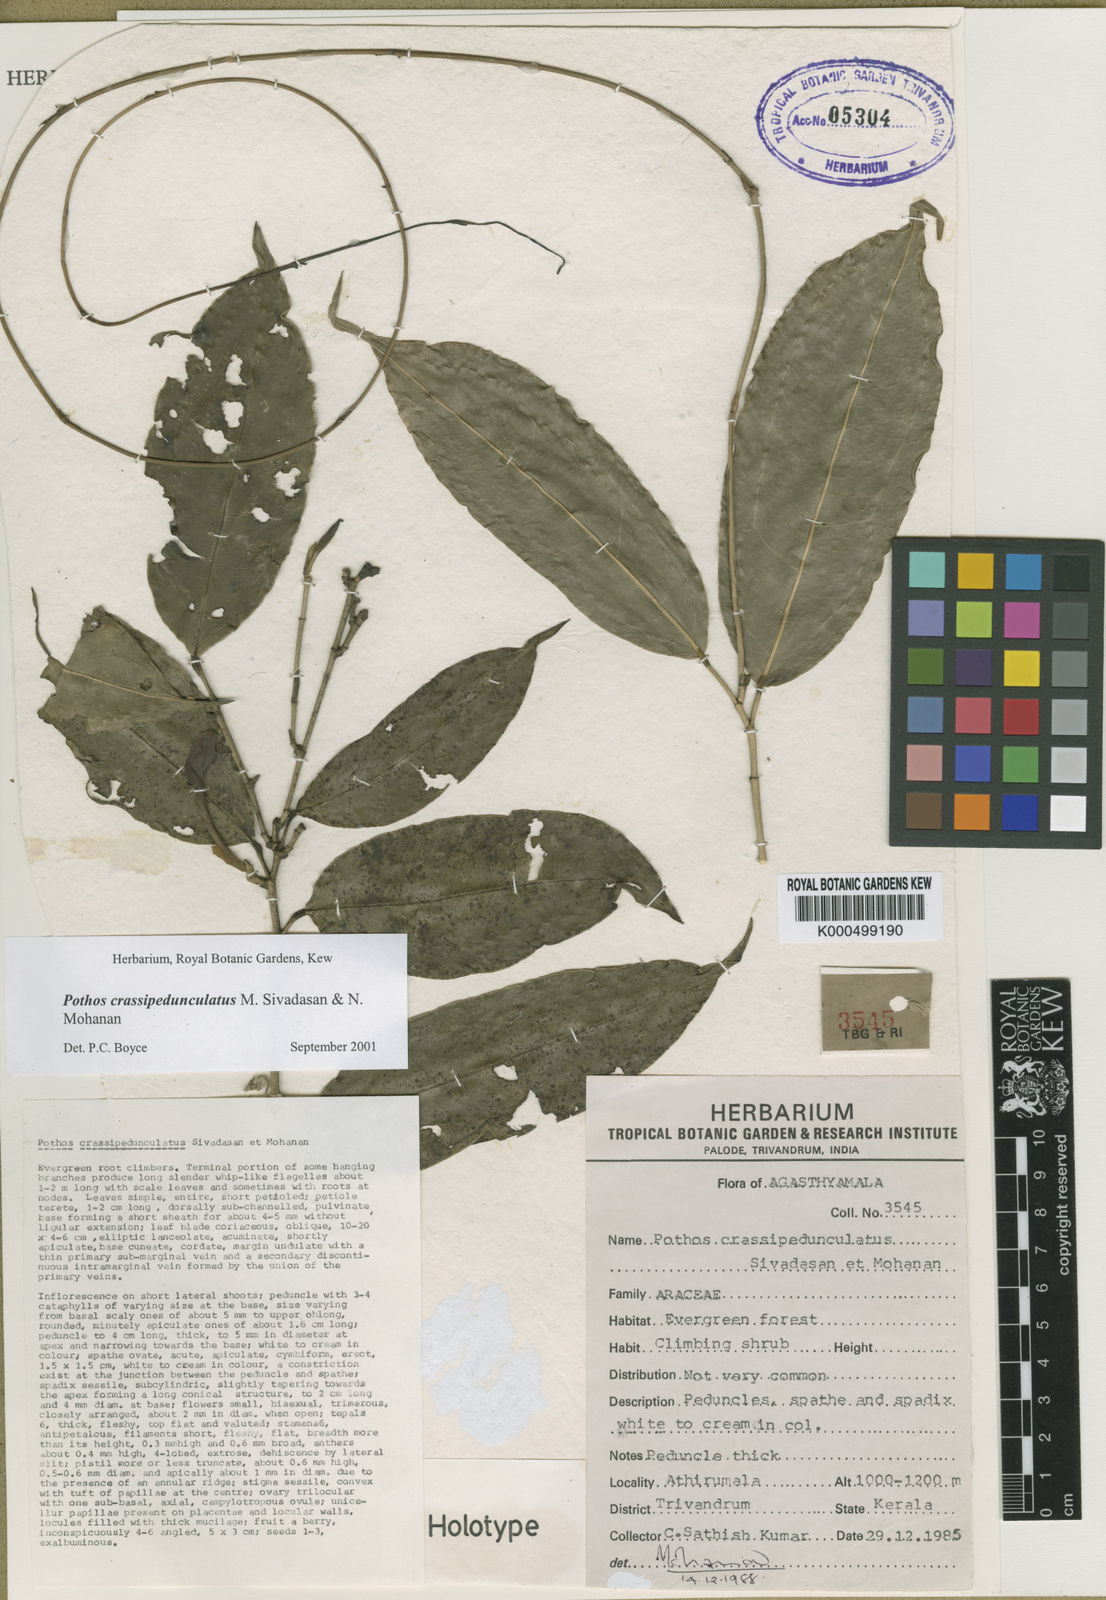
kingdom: Plantae
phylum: Tracheophyta
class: Liliopsida
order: Alismatales
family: Araceae
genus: Pothos
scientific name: Pothos crassipedunculatus
